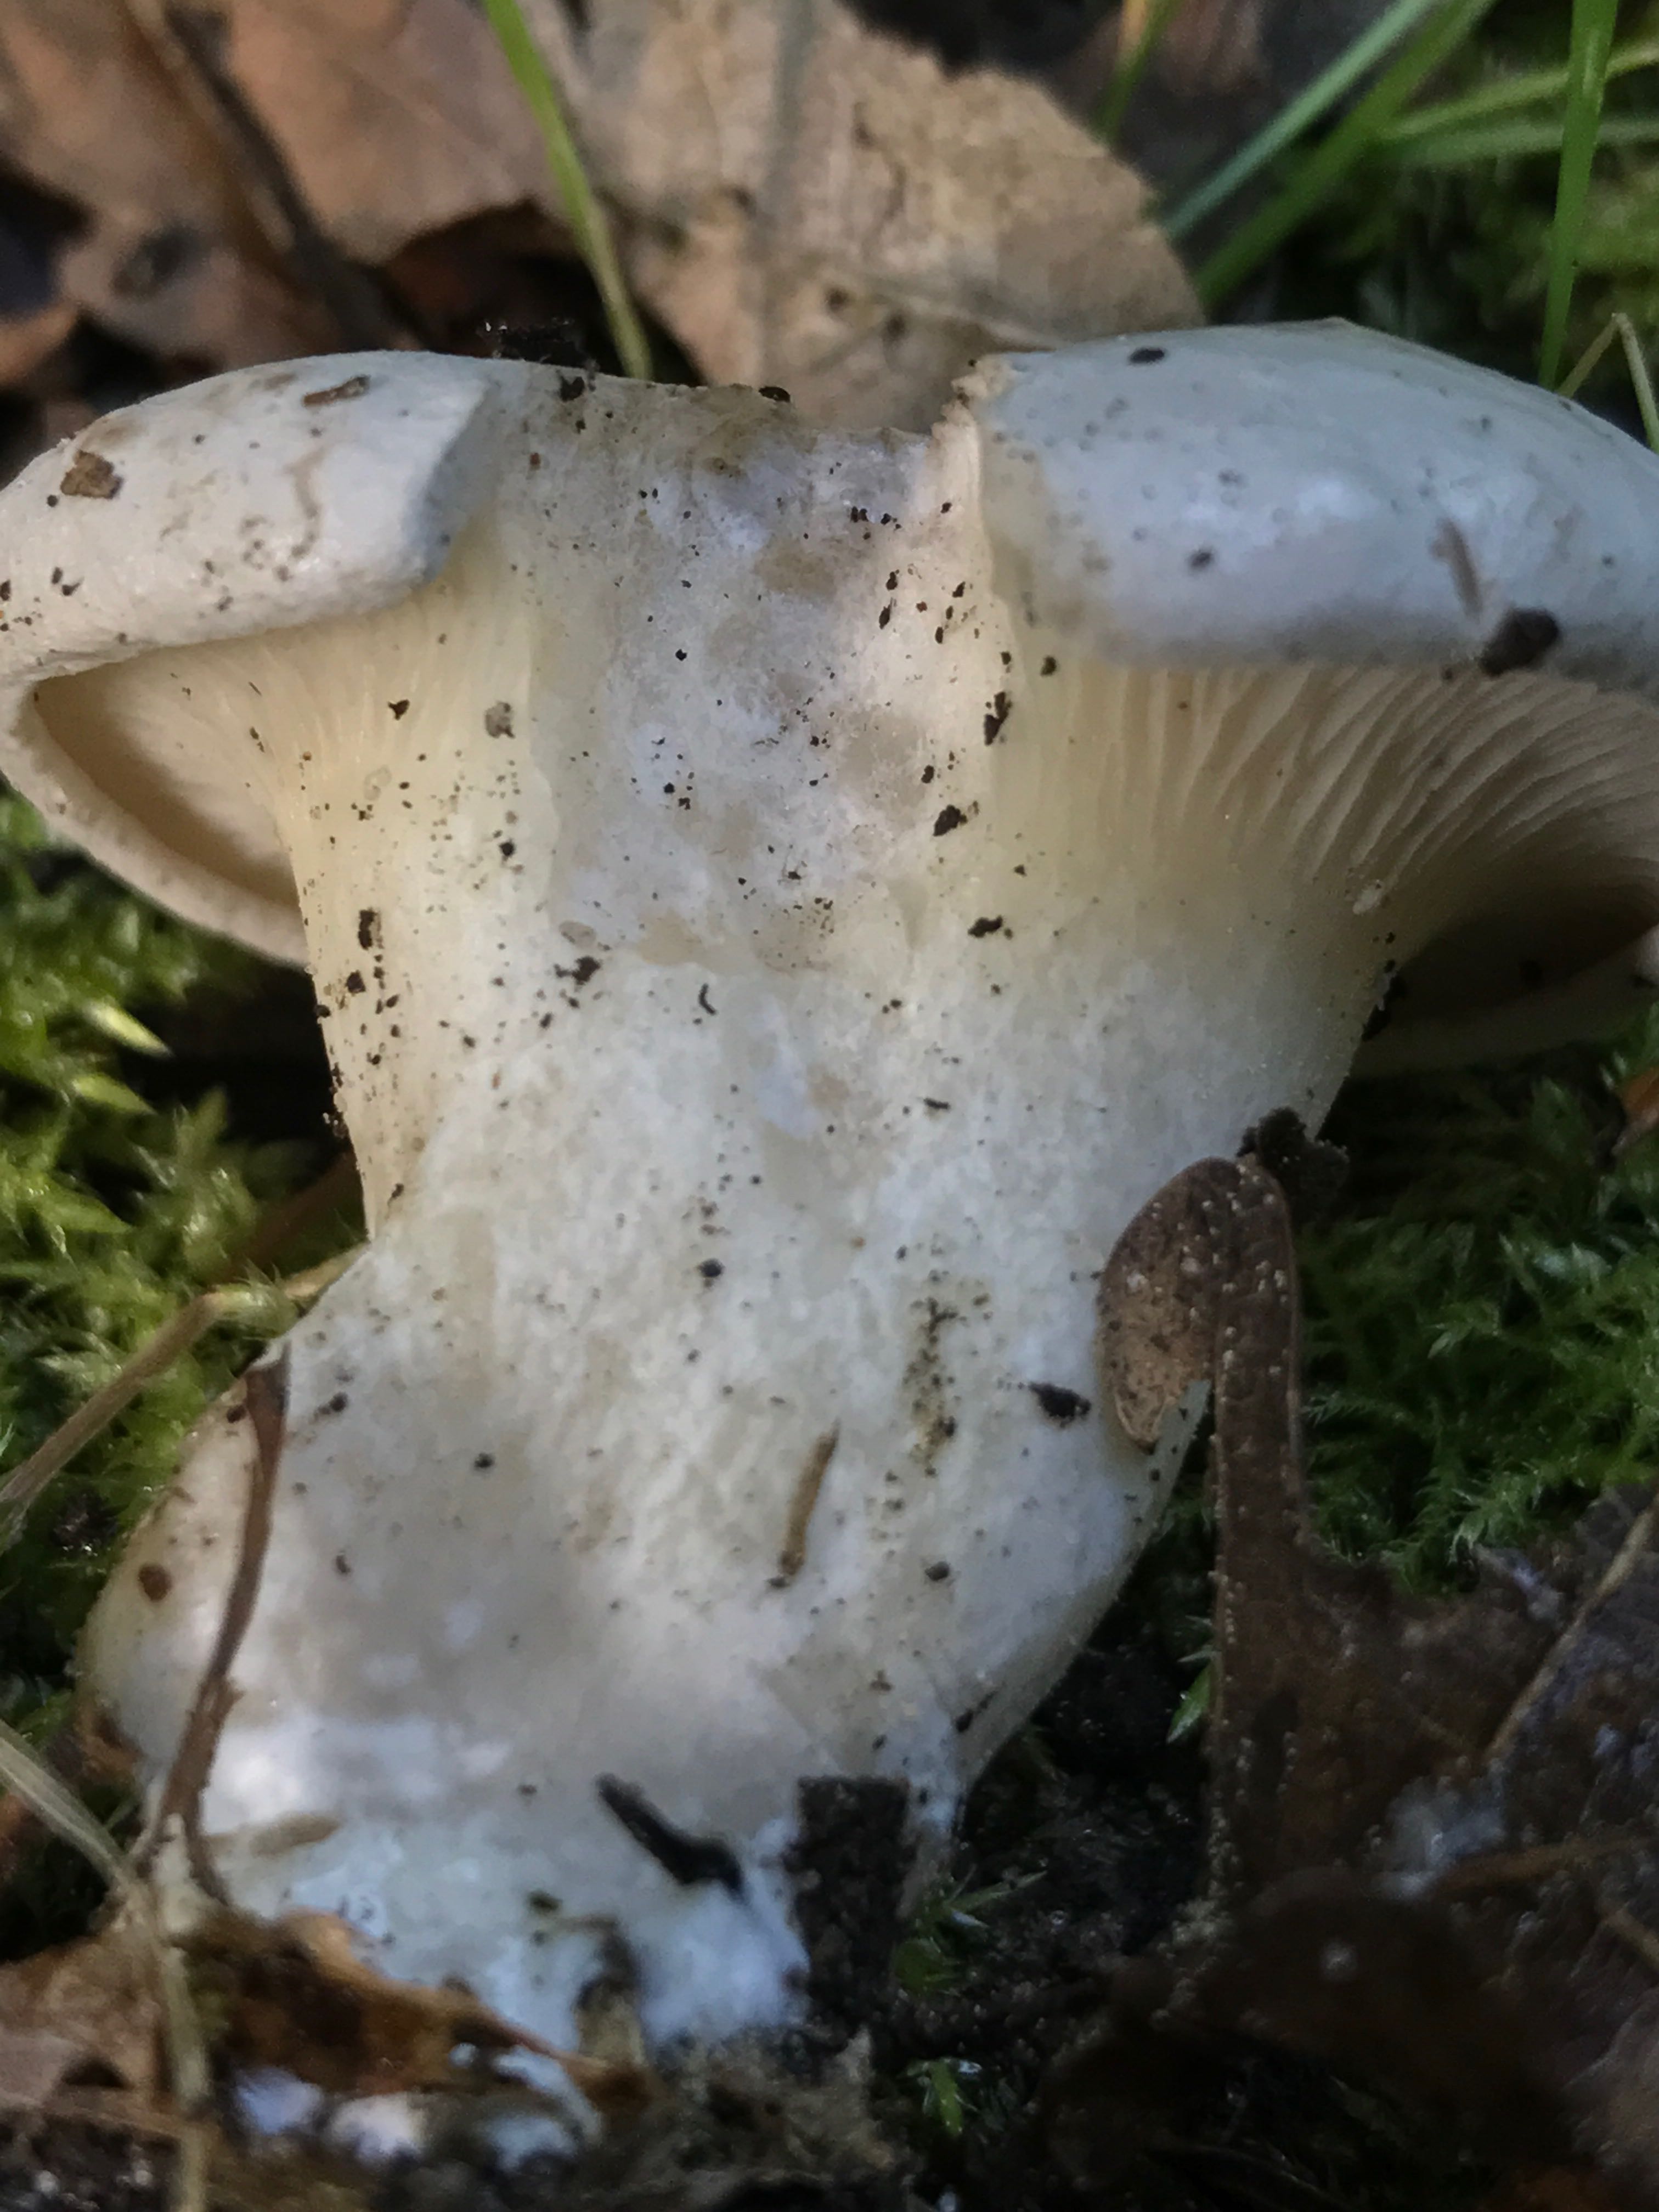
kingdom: Fungi
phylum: Basidiomycota
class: Agaricomycetes
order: Agaricales
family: Entolomataceae
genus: Clitopilus
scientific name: Clitopilus prunulus
